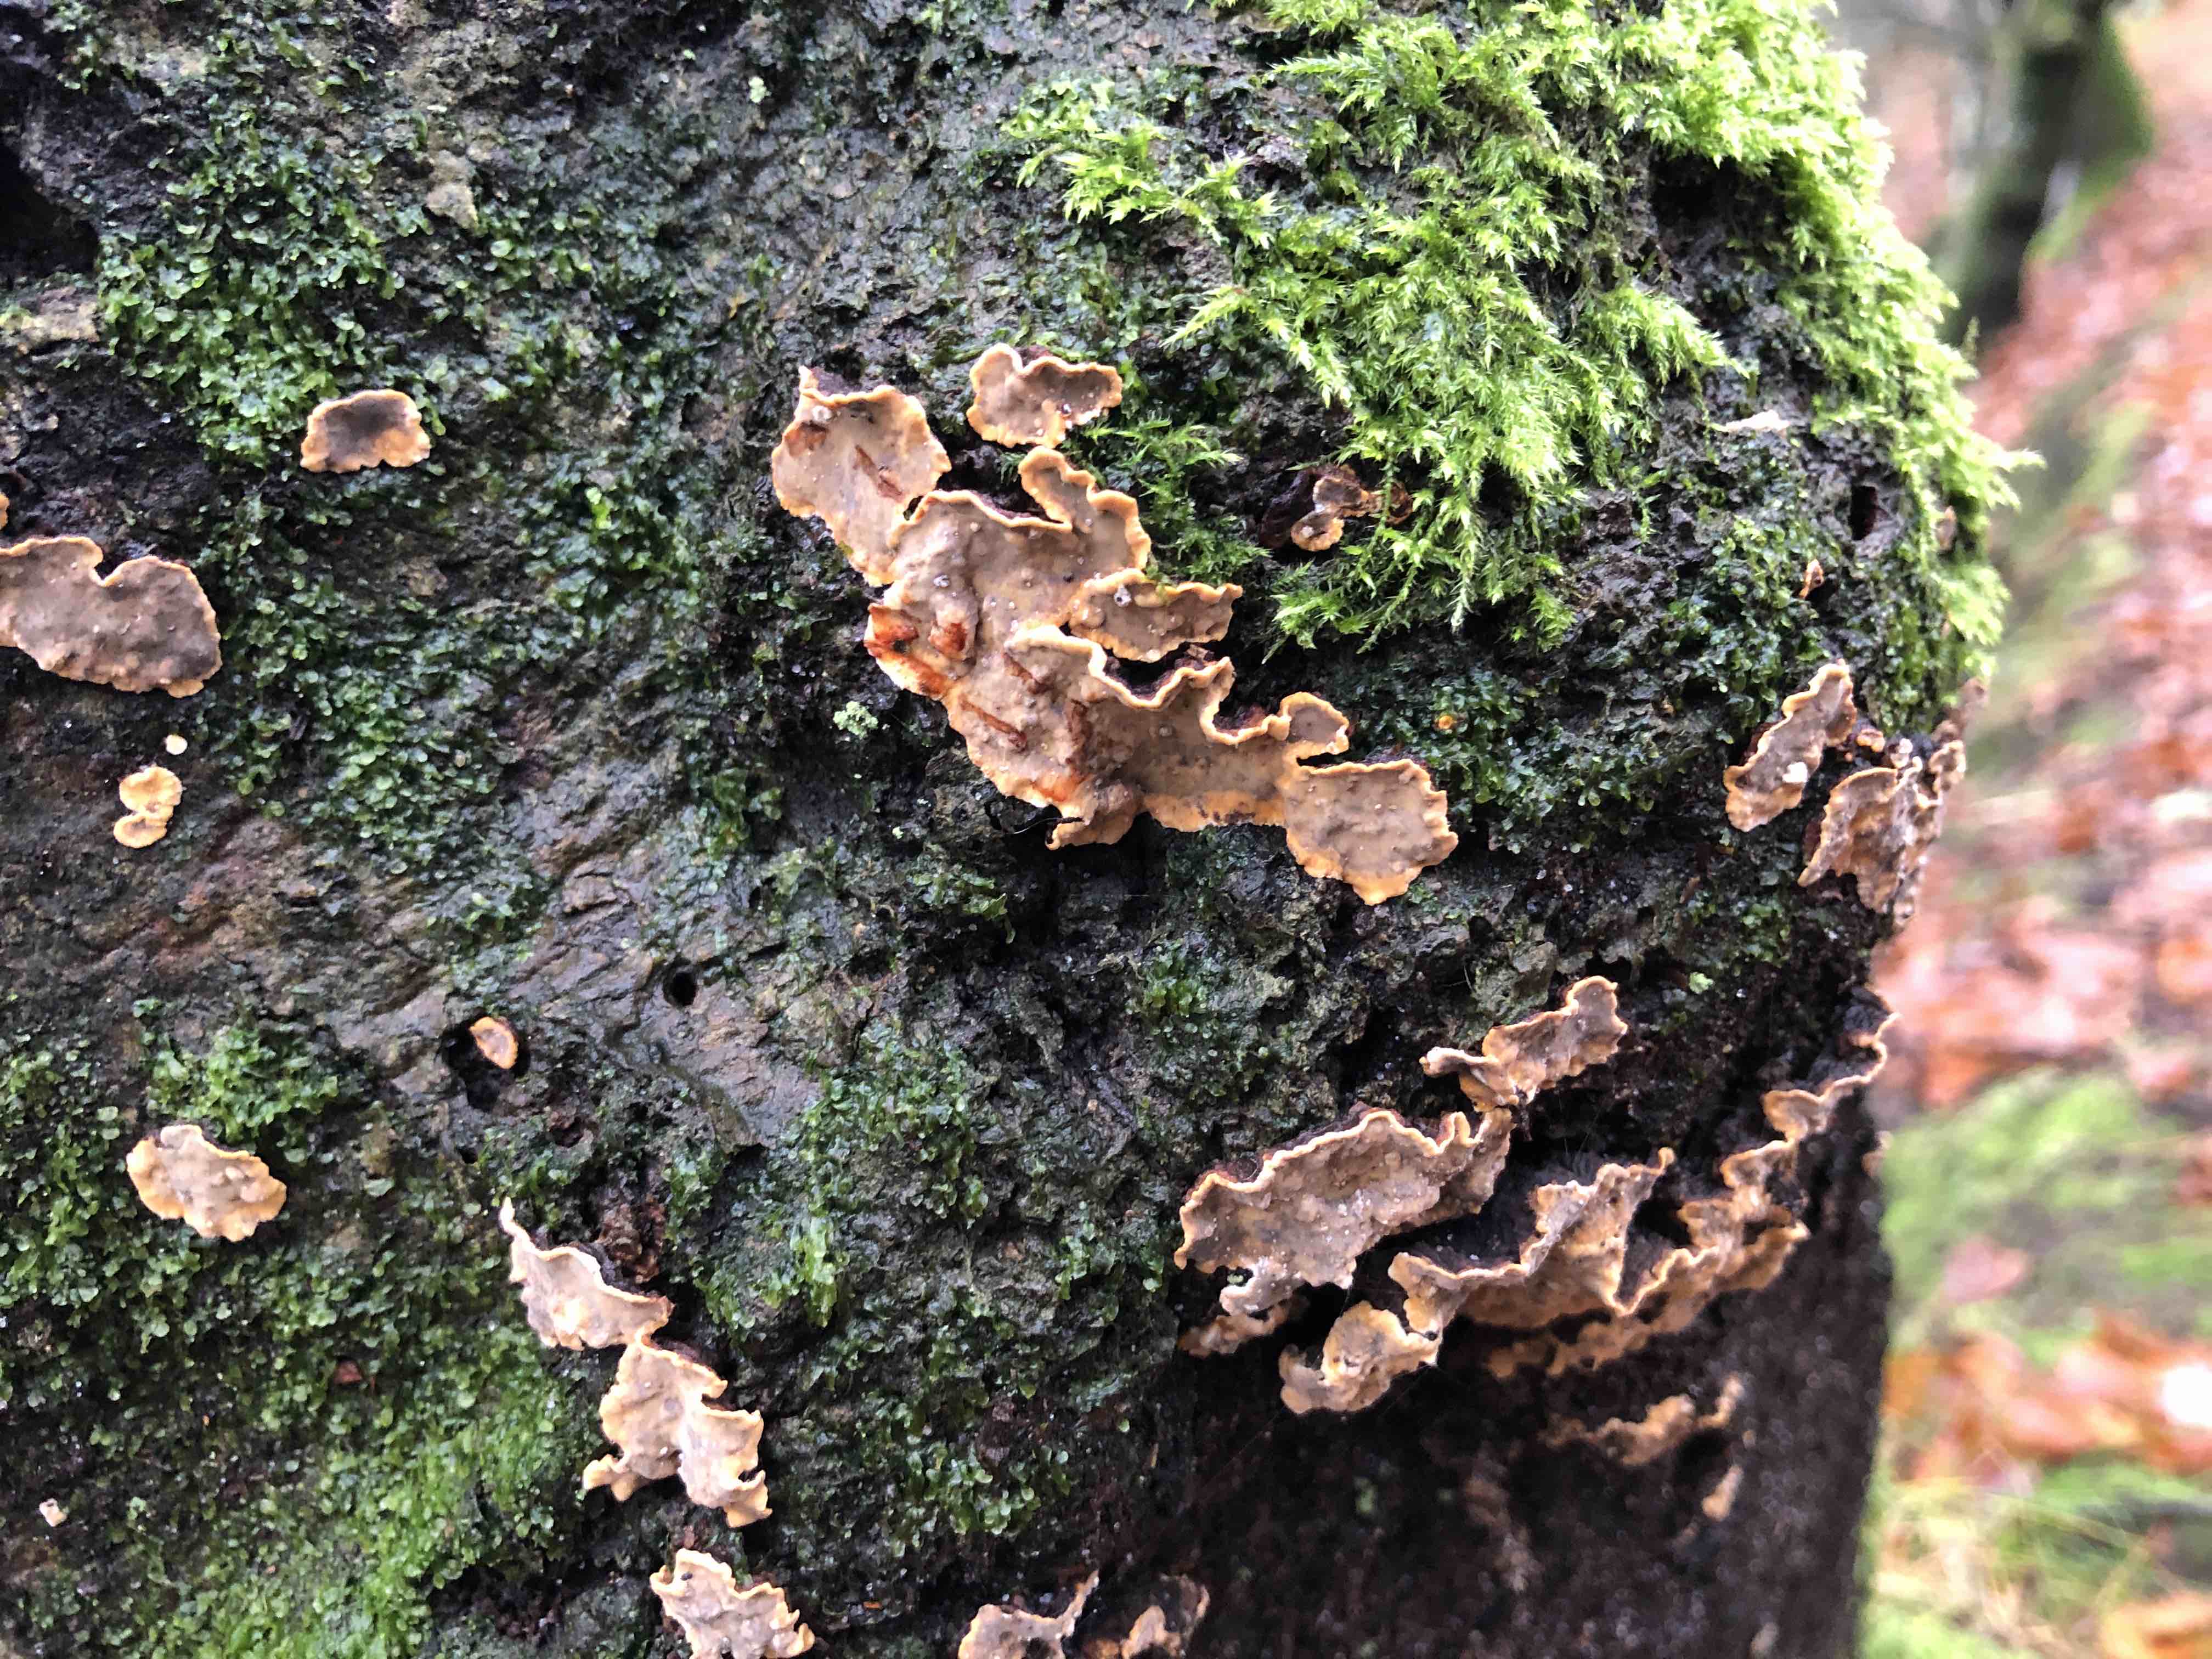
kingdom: Fungi
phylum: Basidiomycota
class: Agaricomycetes
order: Russulales
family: Stereaceae
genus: Stereum
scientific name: Stereum rugosum
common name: rynket lædersvamp
